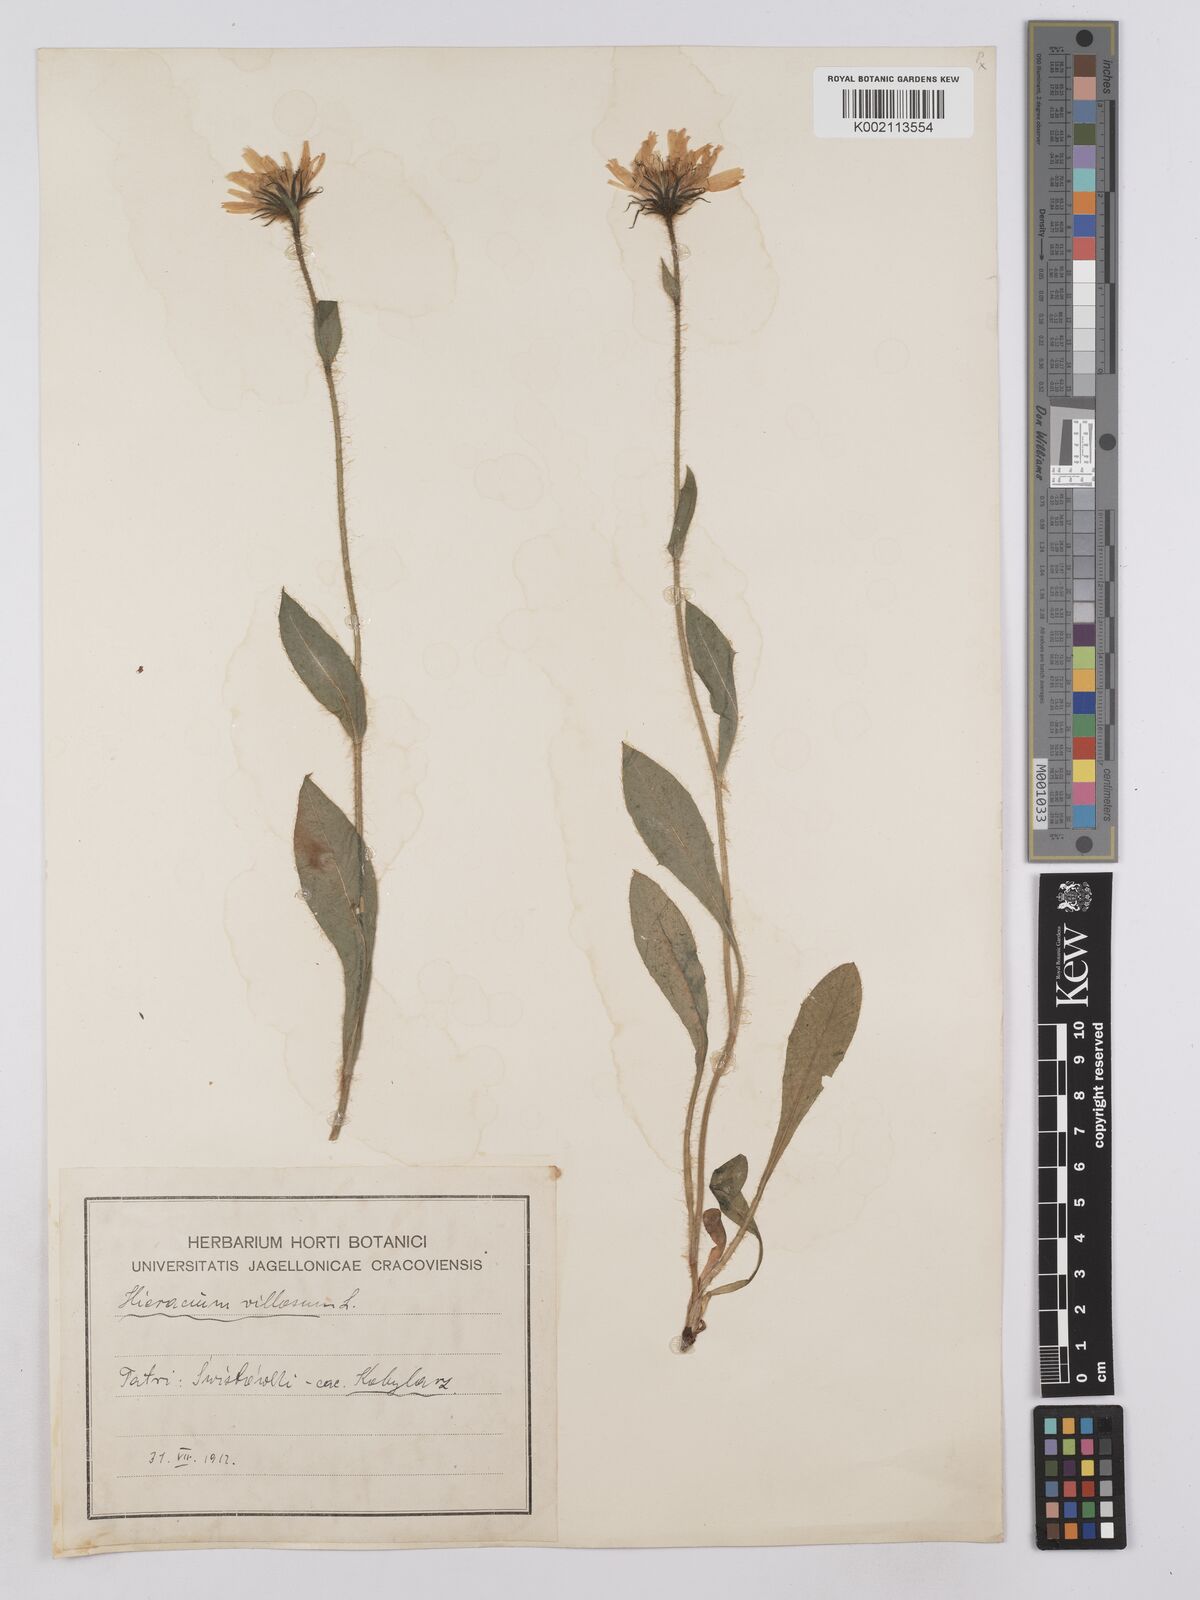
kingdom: Plantae
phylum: Tracheophyta
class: Magnoliopsida
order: Asterales
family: Asteraceae
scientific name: Asteraceae
